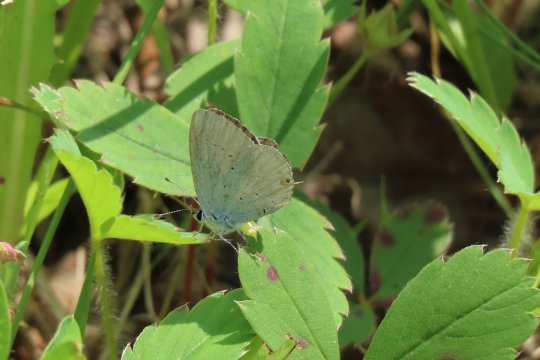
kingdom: Animalia
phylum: Arthropoda
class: Insecta
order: Lepidoptera
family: Lycaenidae
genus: Elkalyce
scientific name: Elkalyce amyntula
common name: Western Tailed-Blue
